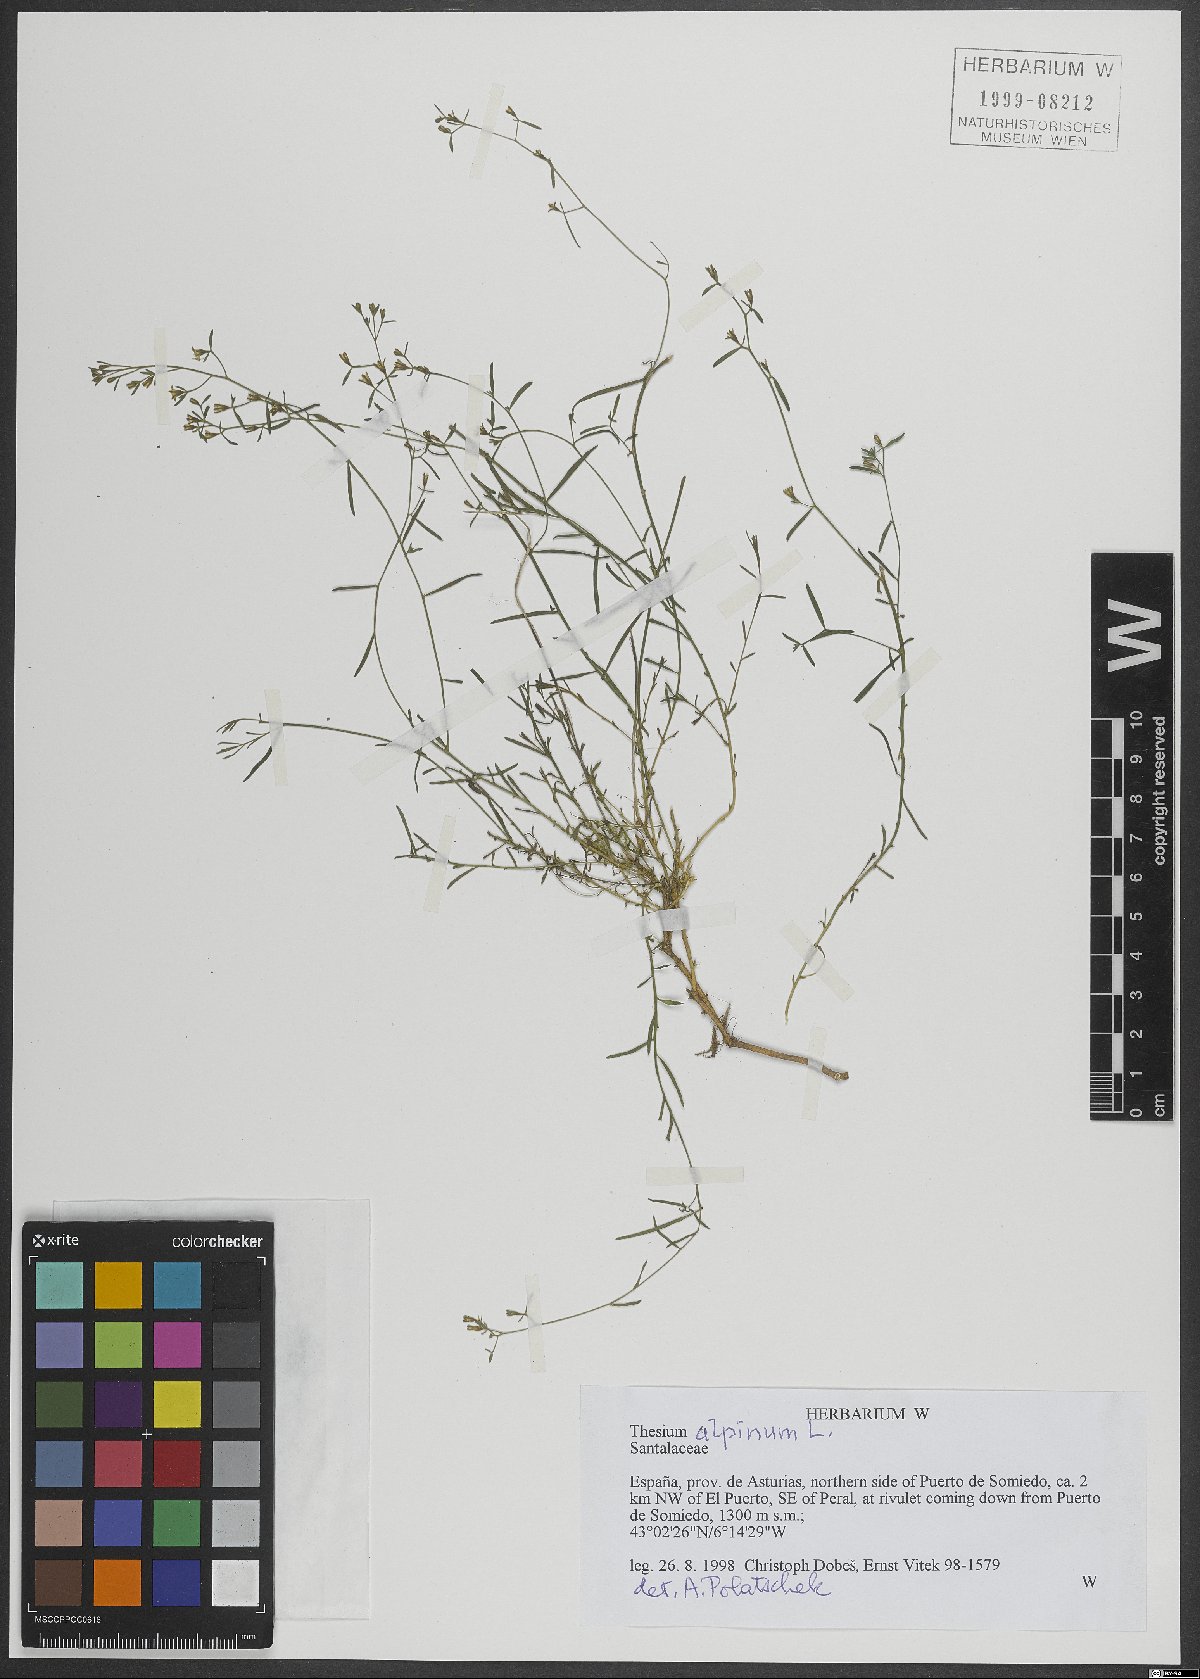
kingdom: Plantae
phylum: Tracheophyta
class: Magnoliopsida
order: Santalales
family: Thesiaceae
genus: Thesium
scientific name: Thesium alpinum
